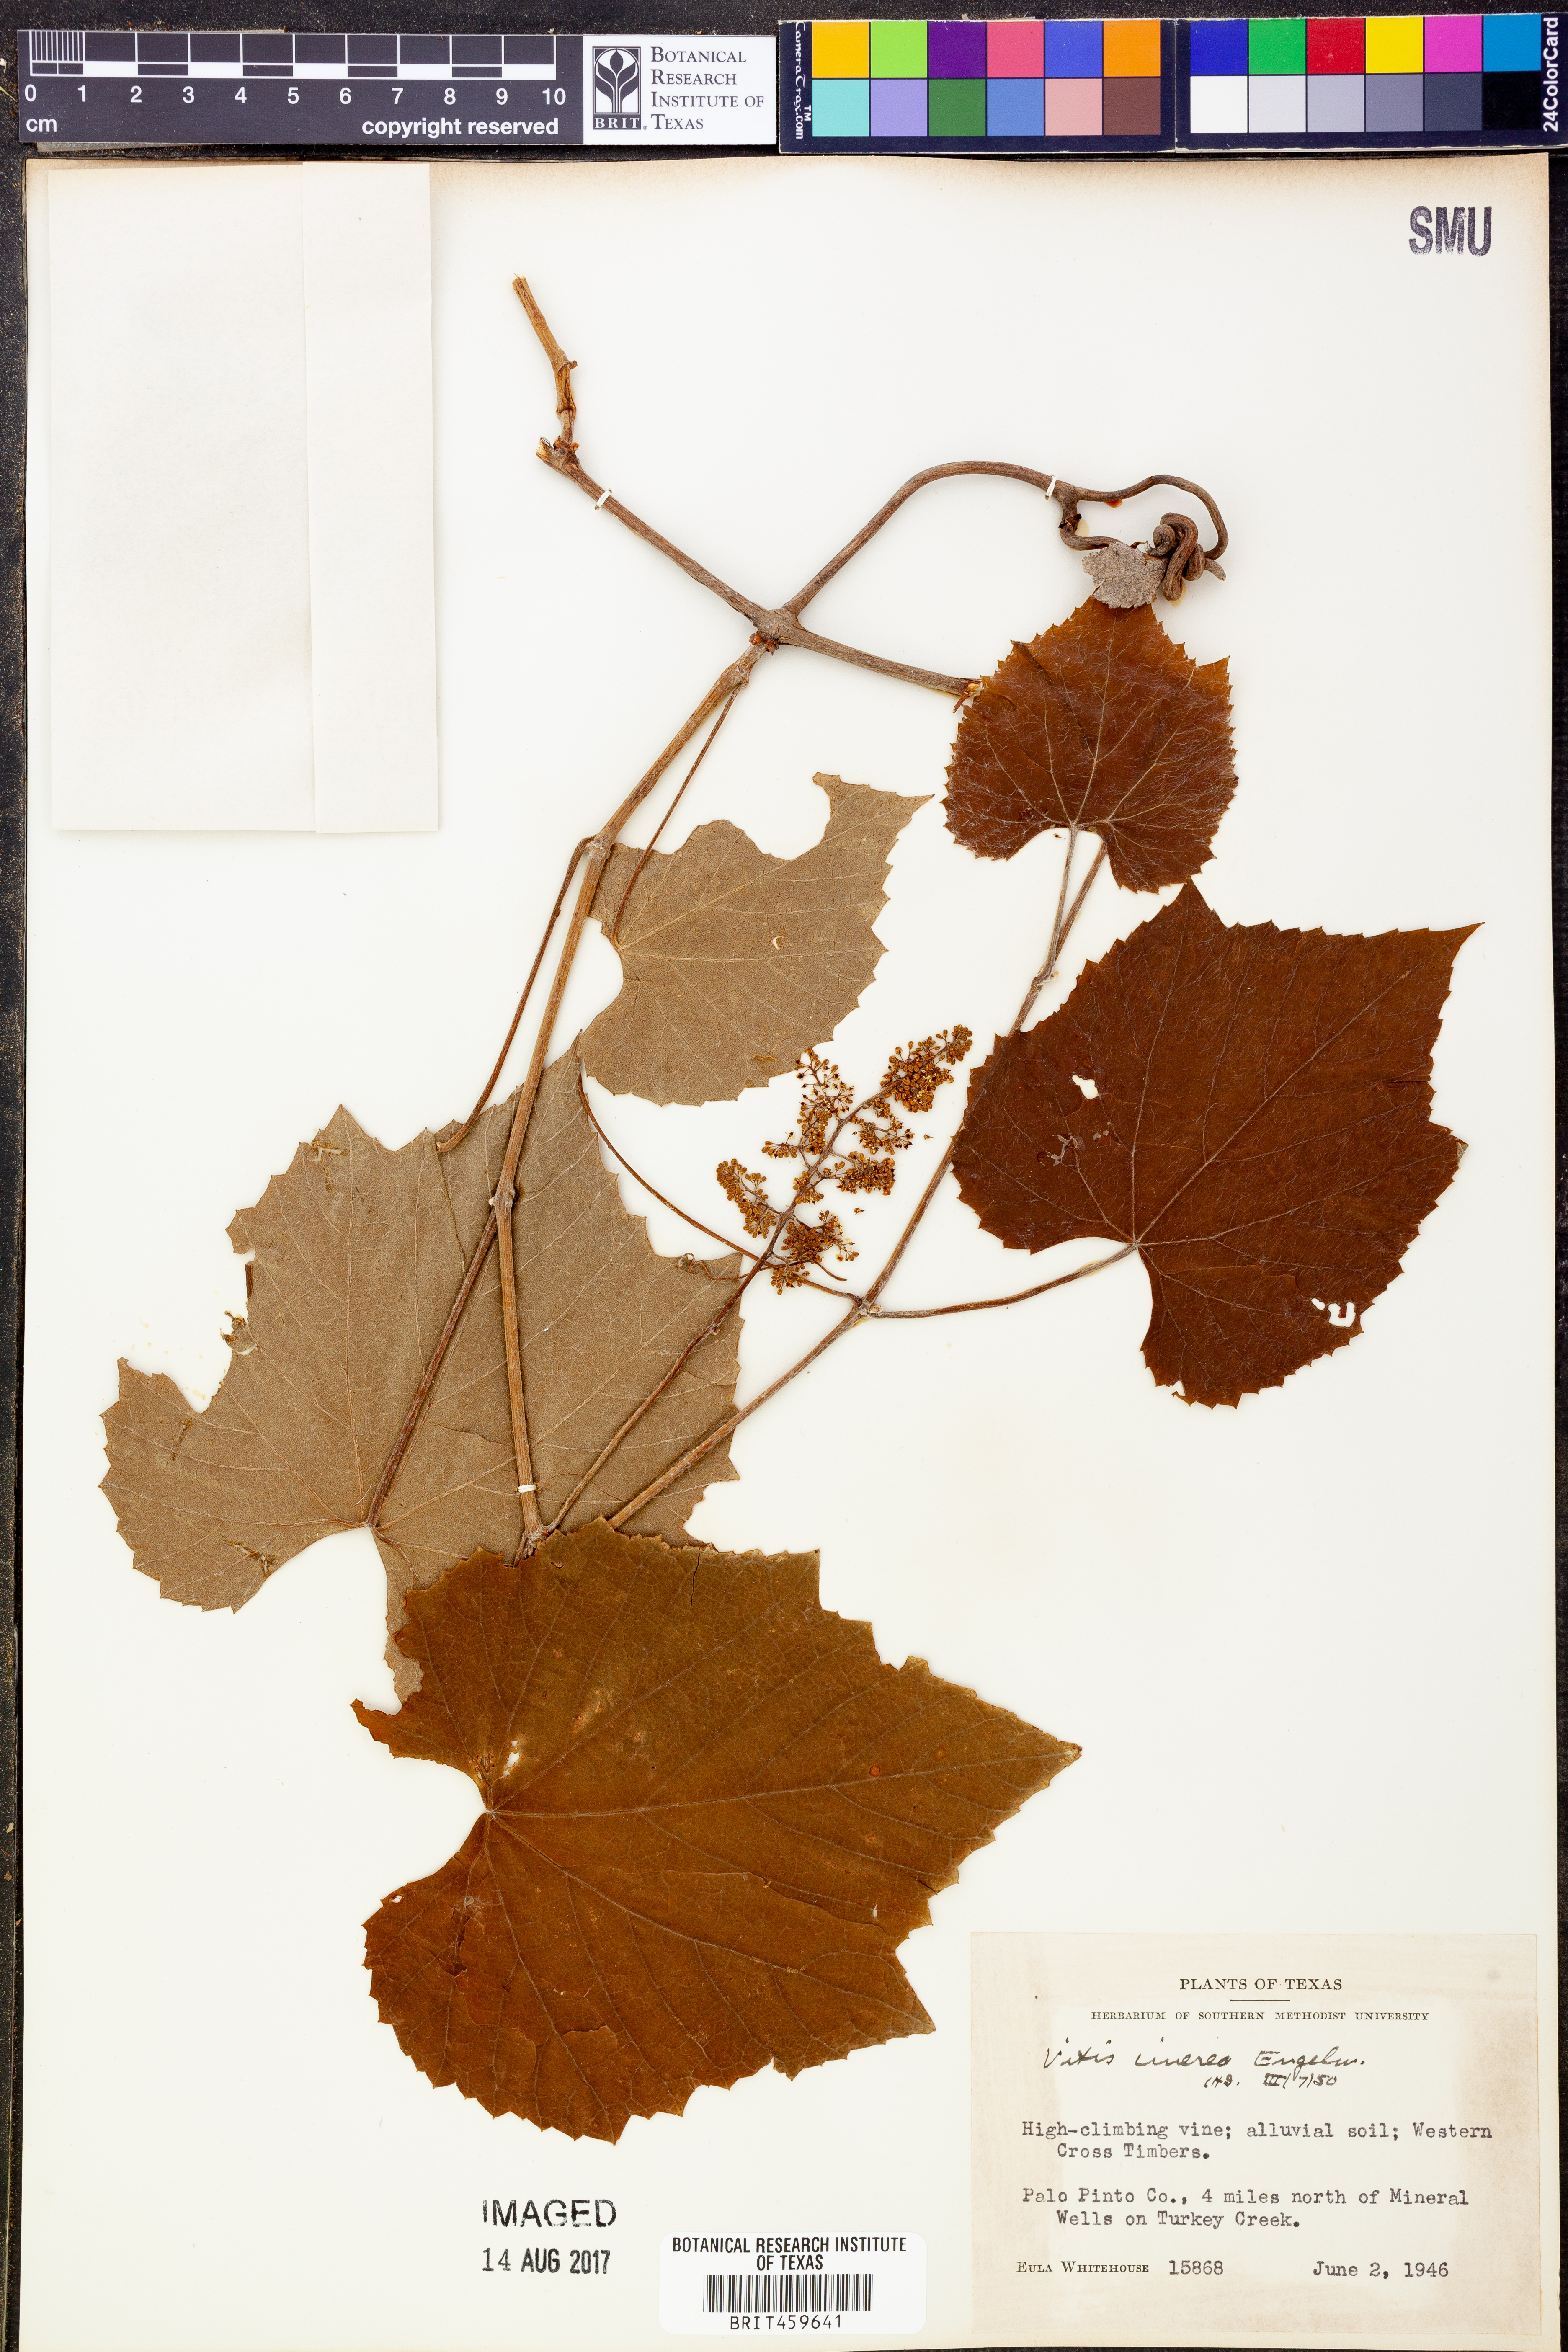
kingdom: Plantae
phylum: Tracheophyta
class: Magnoliopsida
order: Vitales
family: Vitaceae
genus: Vitis
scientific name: Vitis cinerea
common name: Ashy grape
